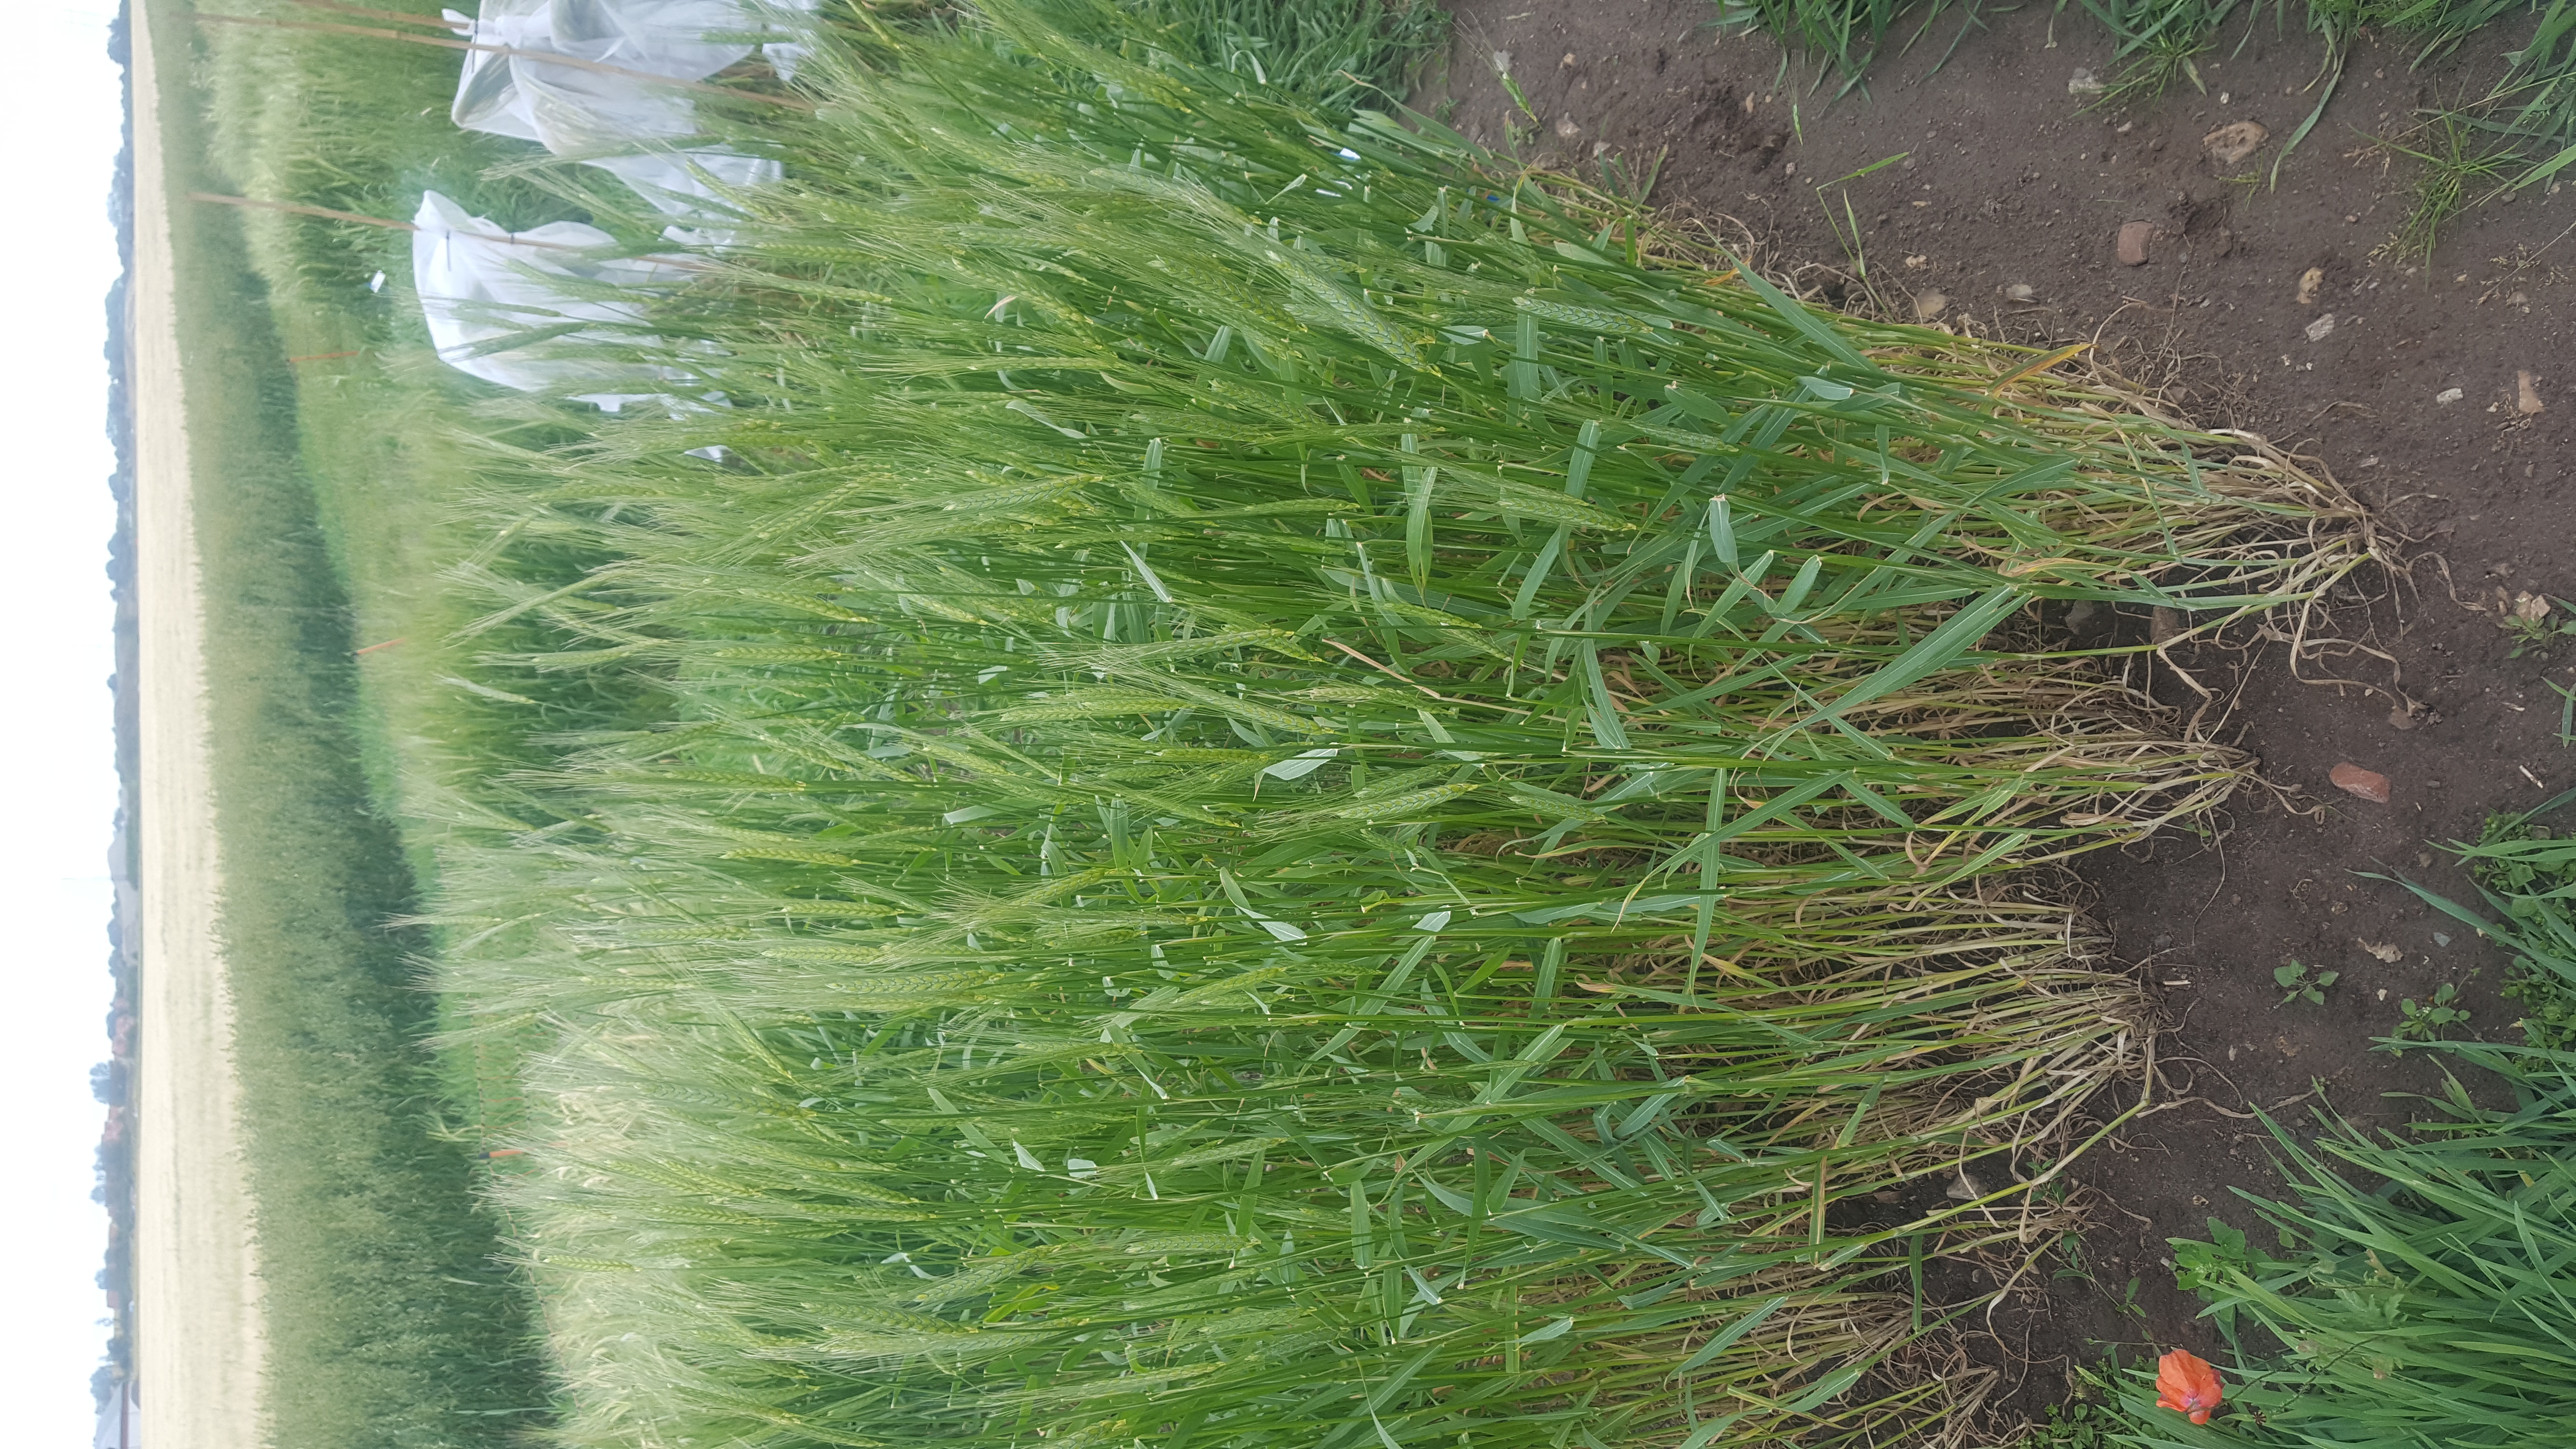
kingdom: Plantae
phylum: Tracheophyta
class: Liliopsida
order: Poales
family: Poaceae
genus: Triticum
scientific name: Triticum turgidum
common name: Rivet wheat
